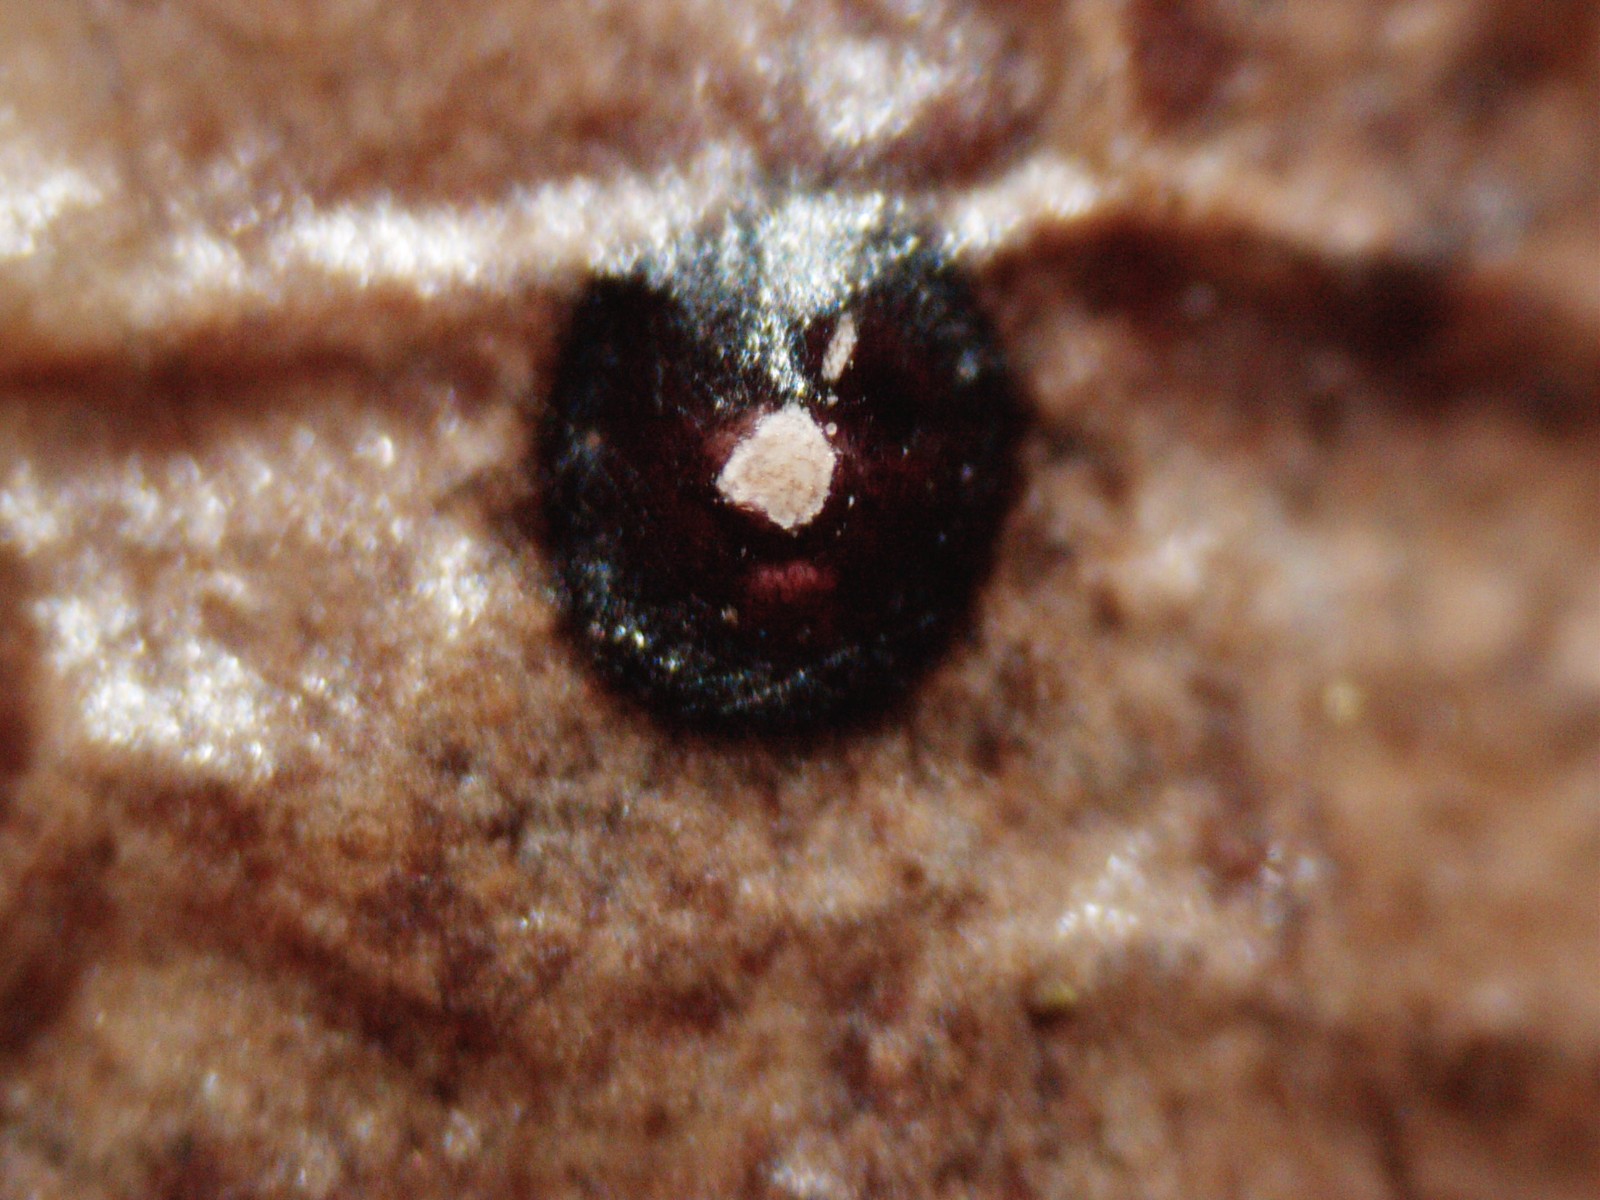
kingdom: Fungi
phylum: Ascomycota
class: Leotiomycetes
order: Phacidiales
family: Phacidiaceae
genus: Phacidium
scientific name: Phacidium lauri
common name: kristtorn-tandskive
